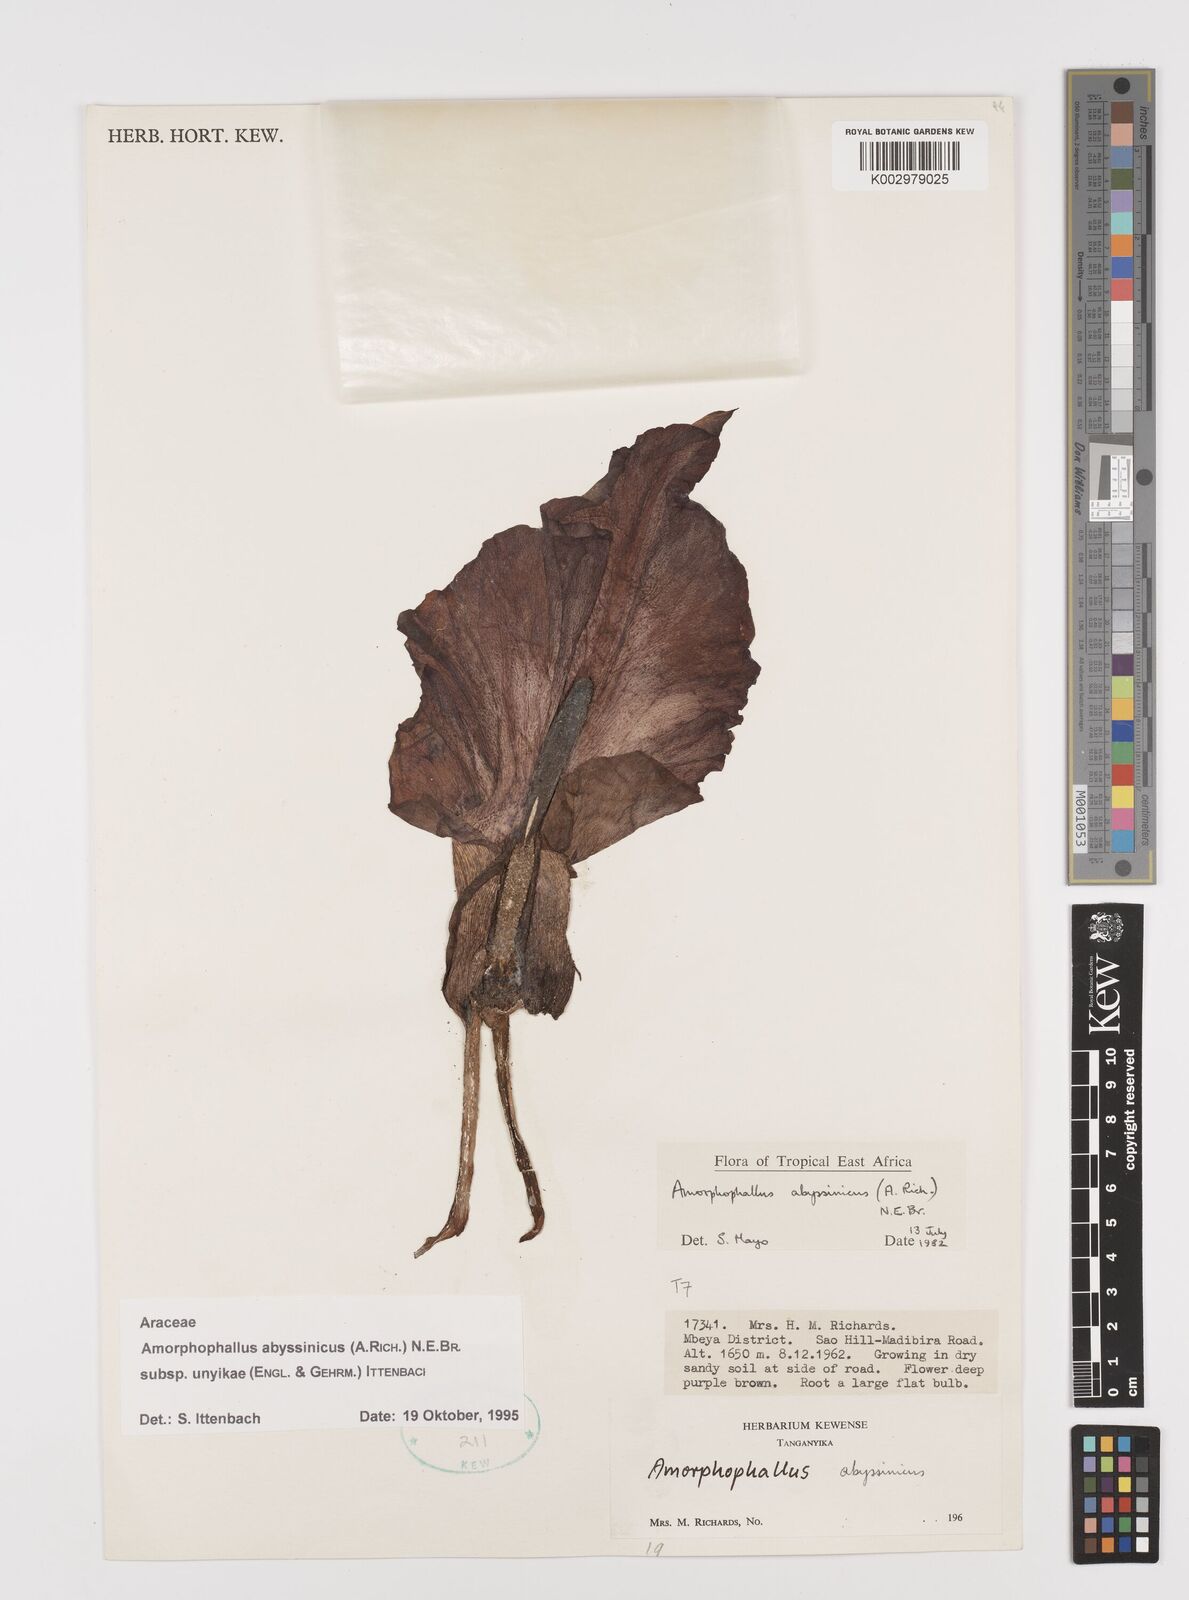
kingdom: Plantae
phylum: Tracheophyta
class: Liliopsida
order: Alismatales
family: Araceae
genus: Amorphophallus
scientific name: Amorphophallus abyssinicus
